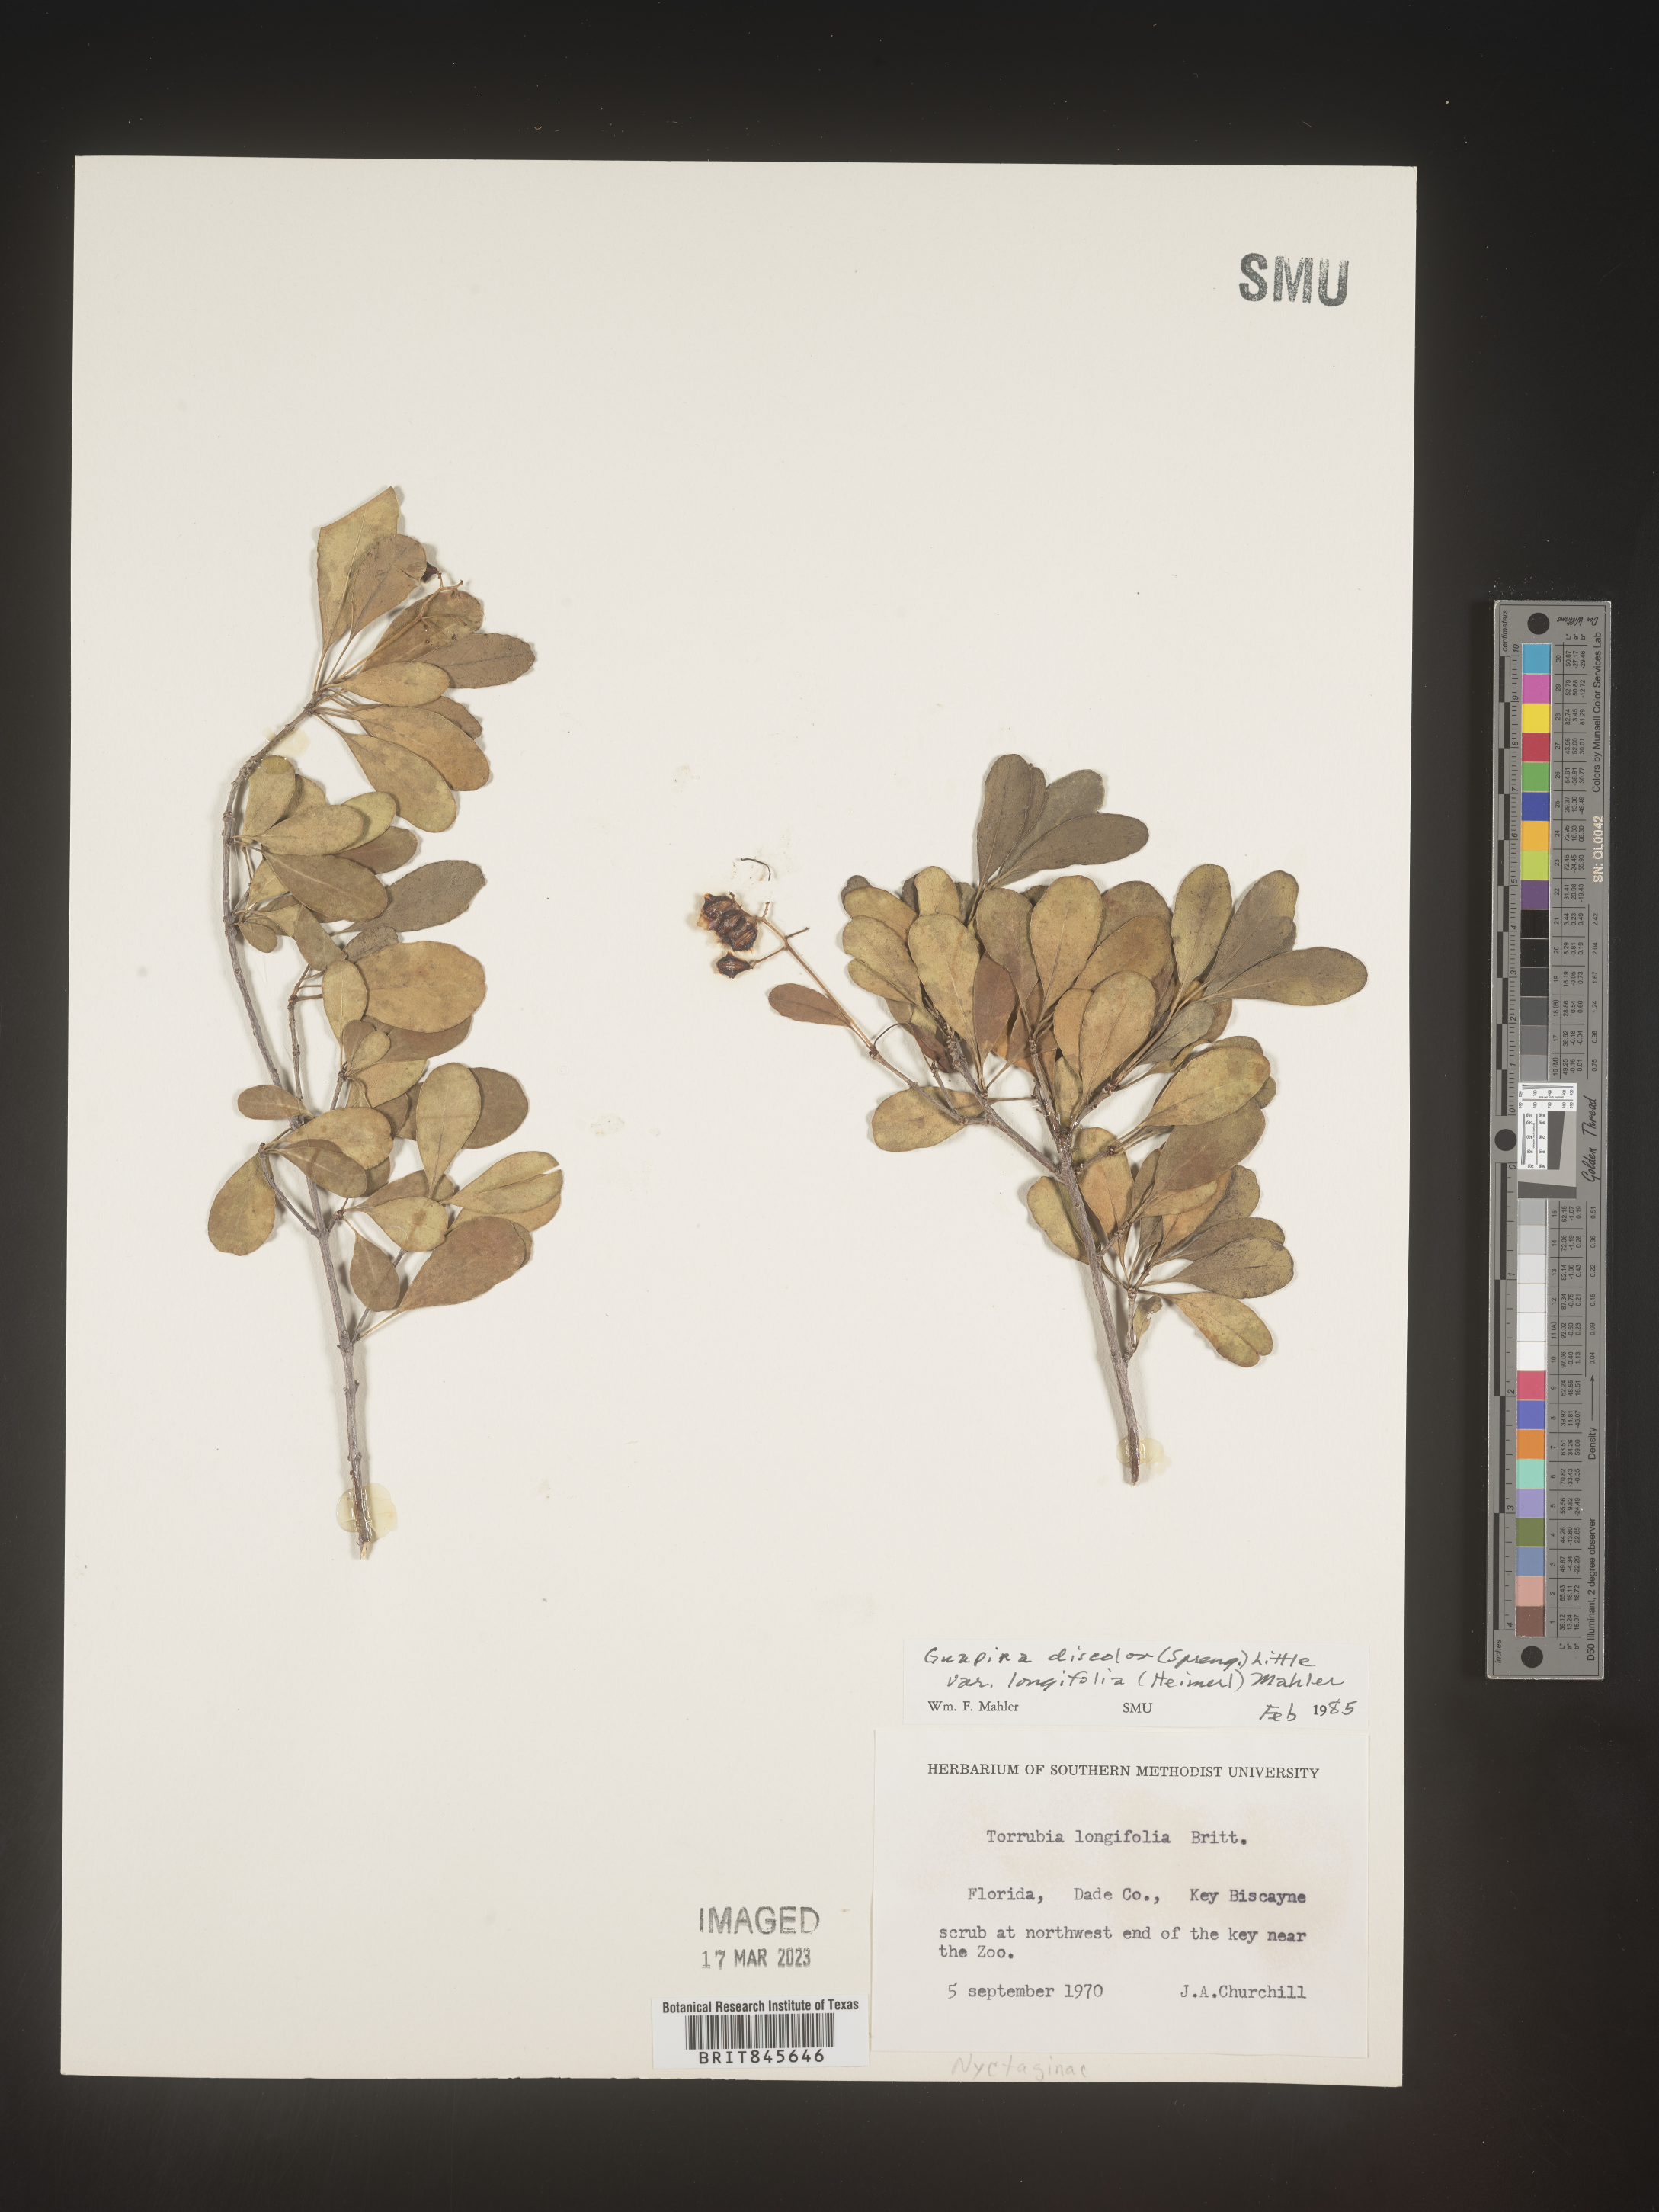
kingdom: Plantae
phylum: Tracheophyta
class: Magnoliopsida
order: Caryophyllales
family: Nyctaginaceae
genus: Guapira
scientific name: Guapira discolor
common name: Beeftree
